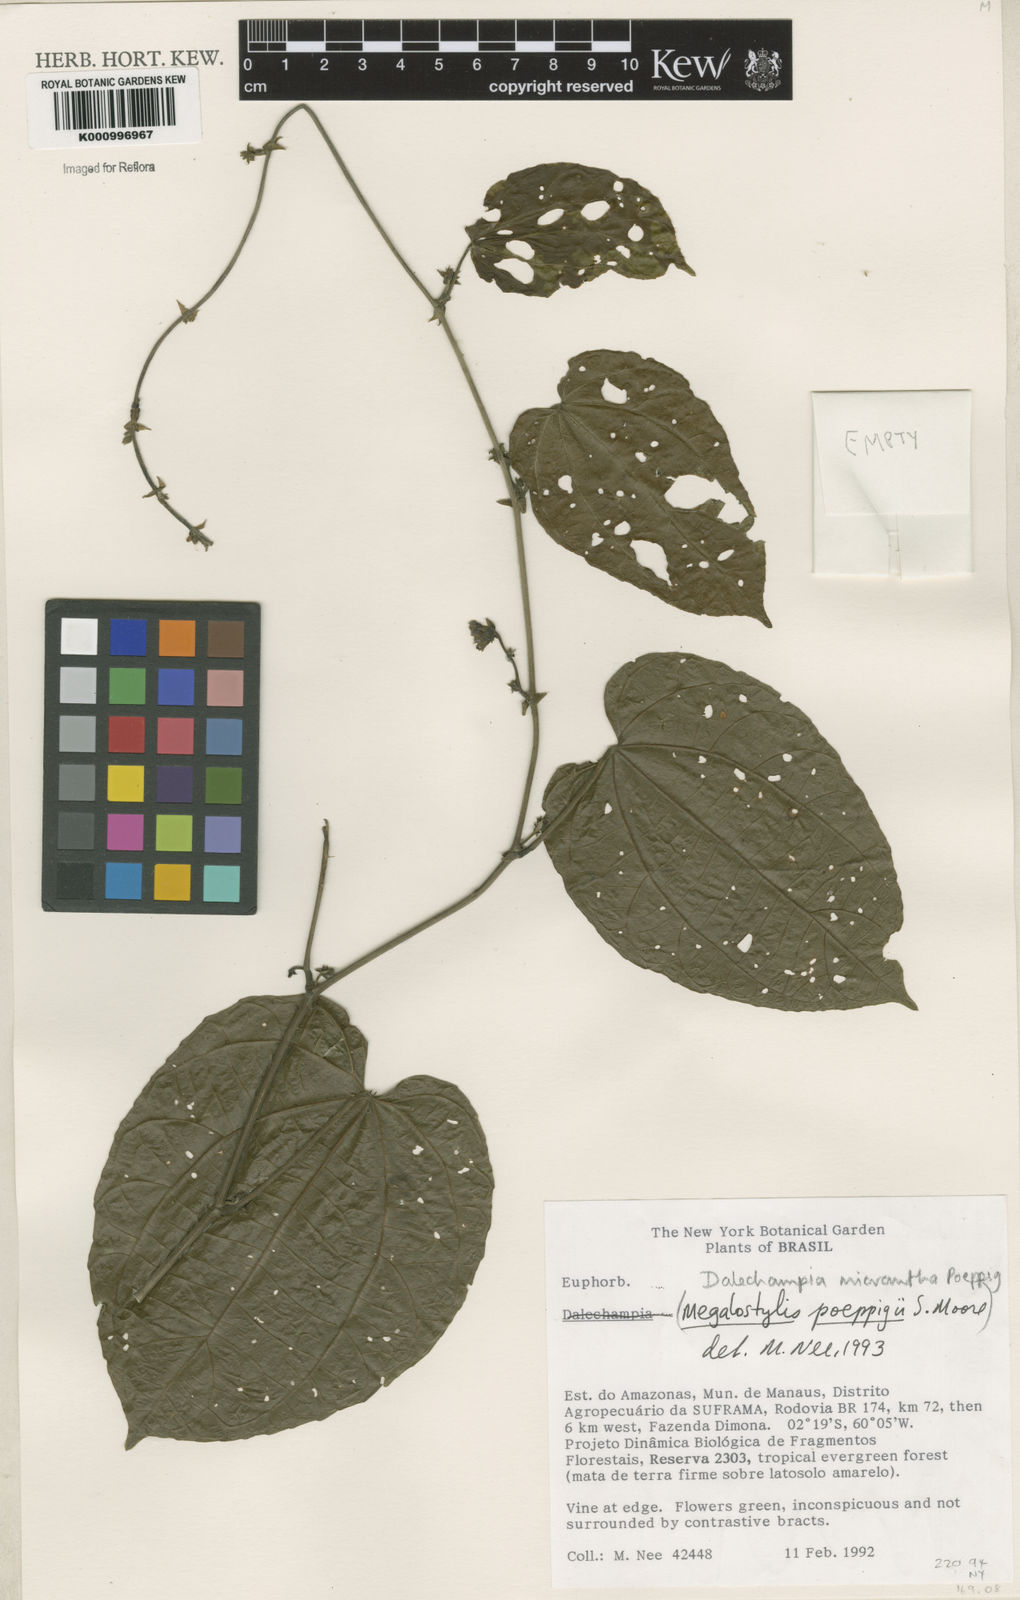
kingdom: Plantae
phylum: Tracheophyta
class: Magnoliopsida
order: Malpighiales
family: Euphorbiaceae
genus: Dalechampia
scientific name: Dalechampia micrantha
